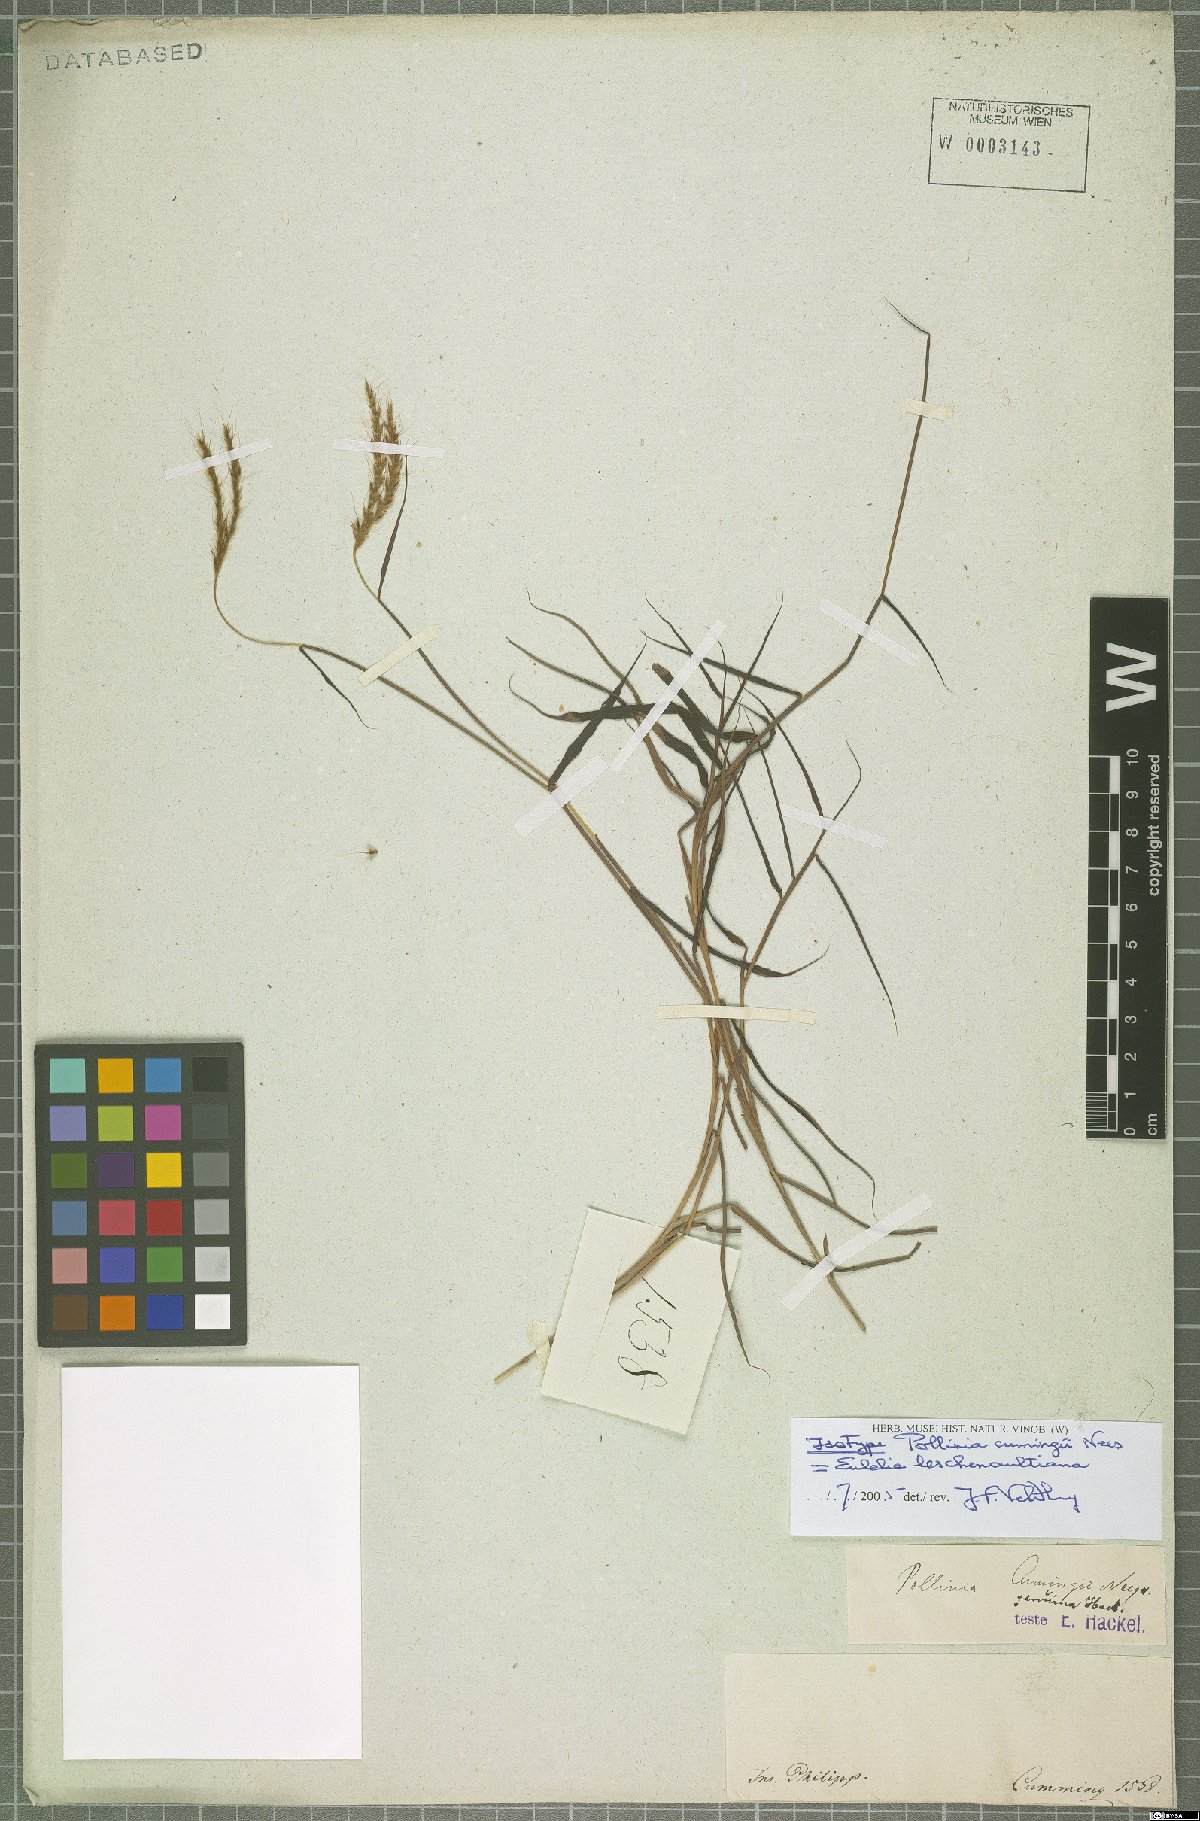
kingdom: Plantae
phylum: Tracheophyta
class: Liliopsida
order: Poales
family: Poaceae
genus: Eulalia
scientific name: Eulalia leschenaultiana
